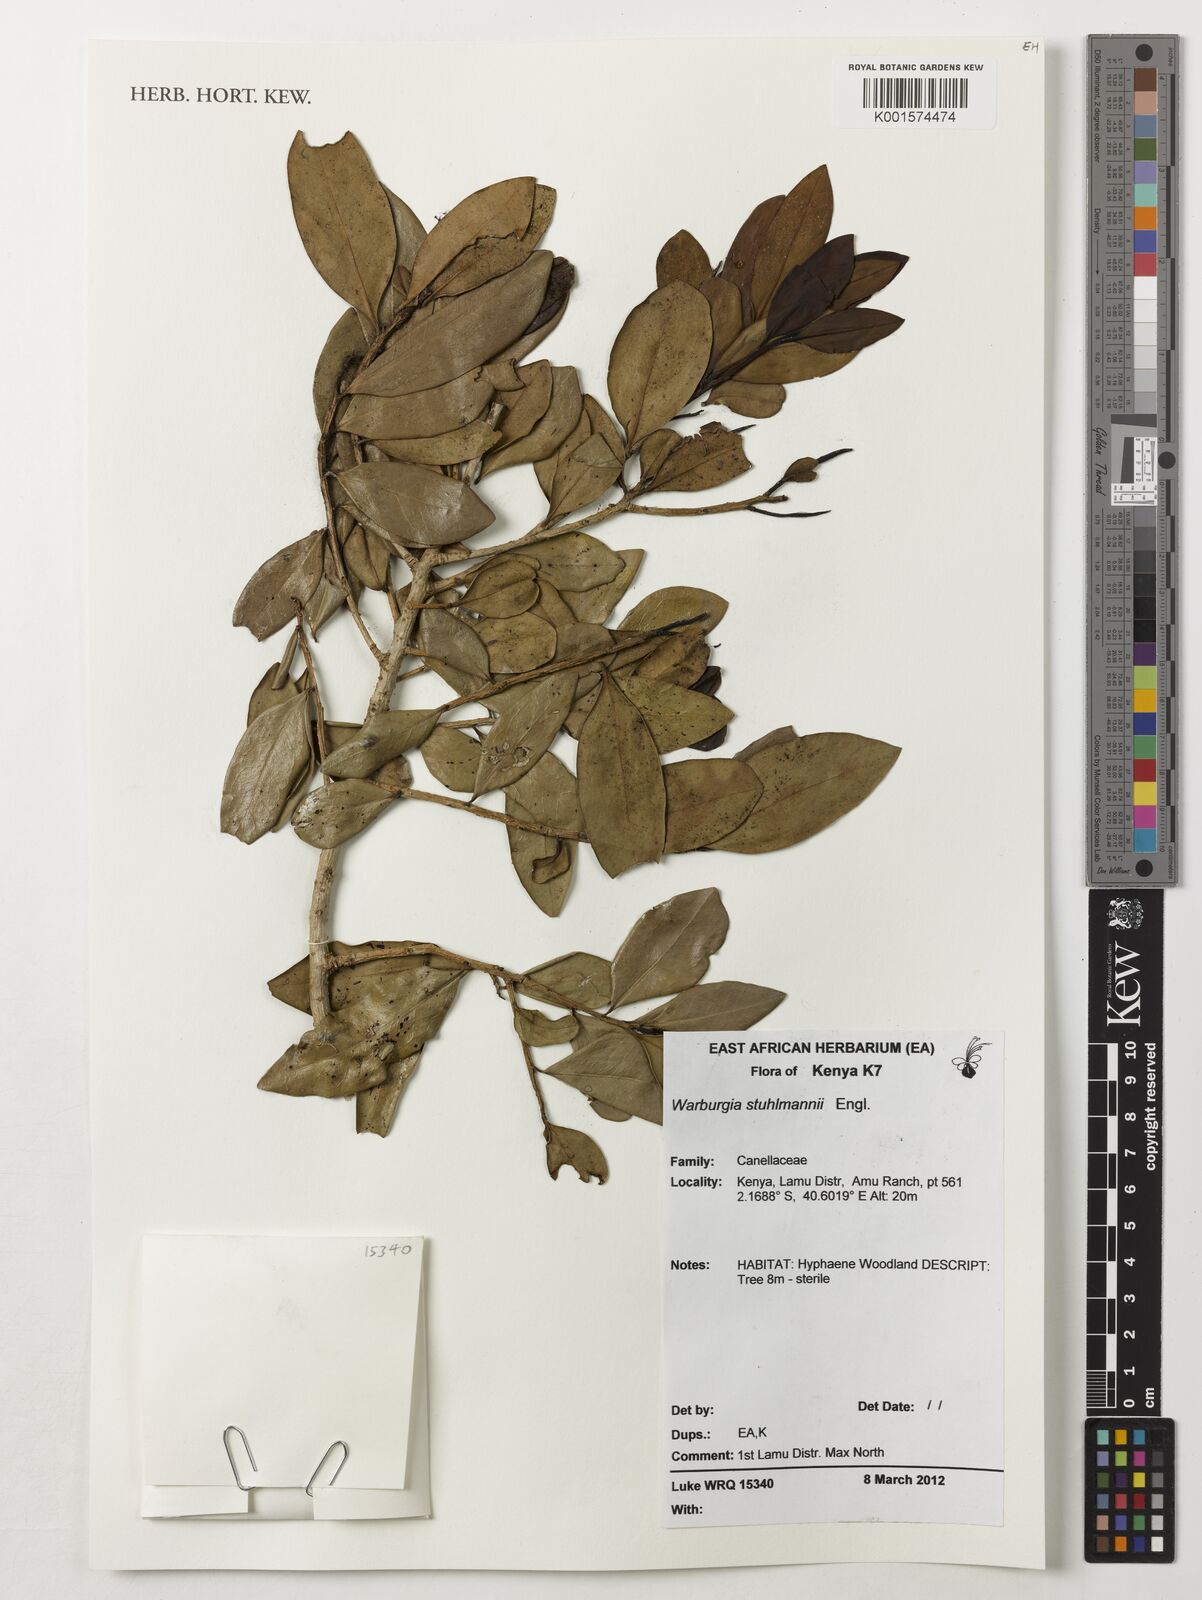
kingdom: Plantae
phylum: Tracheophyta
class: Magnoliopsida
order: Canellales
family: Canellaceae
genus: Warburgia
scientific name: Warburgia stuhlmannii
